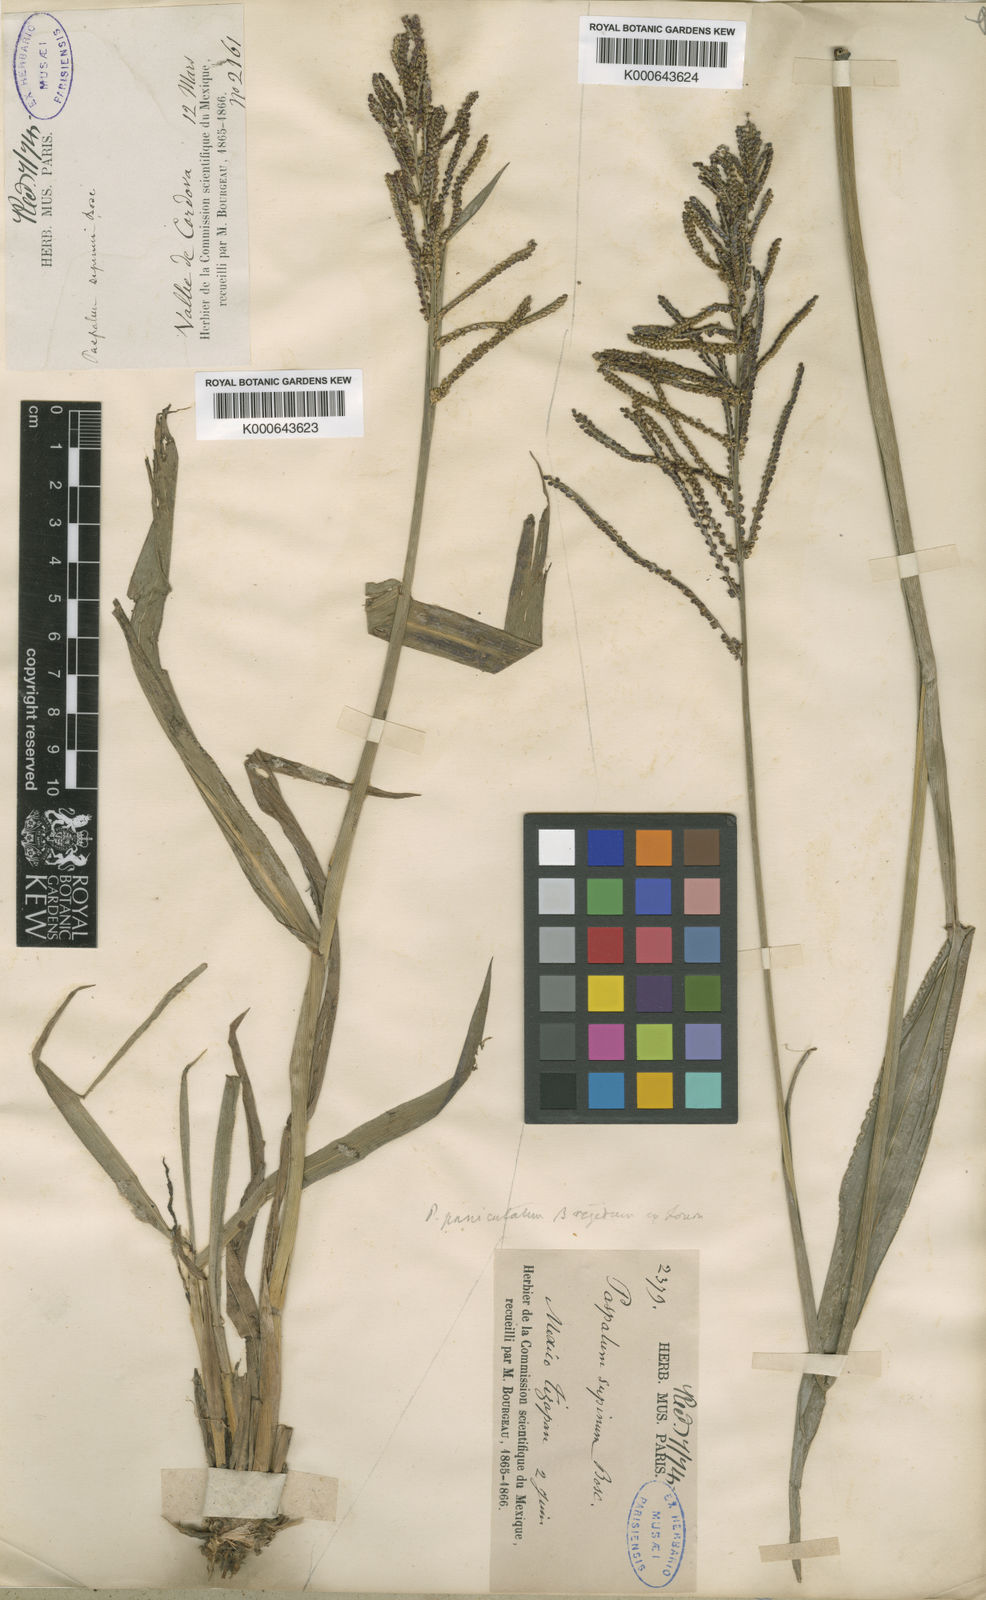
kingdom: Plantae
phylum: Tracheophyta
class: Liliopsida
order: Poales
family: Poaceae
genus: Paspalum
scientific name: Paspalum paniculatum
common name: Arrocillo
